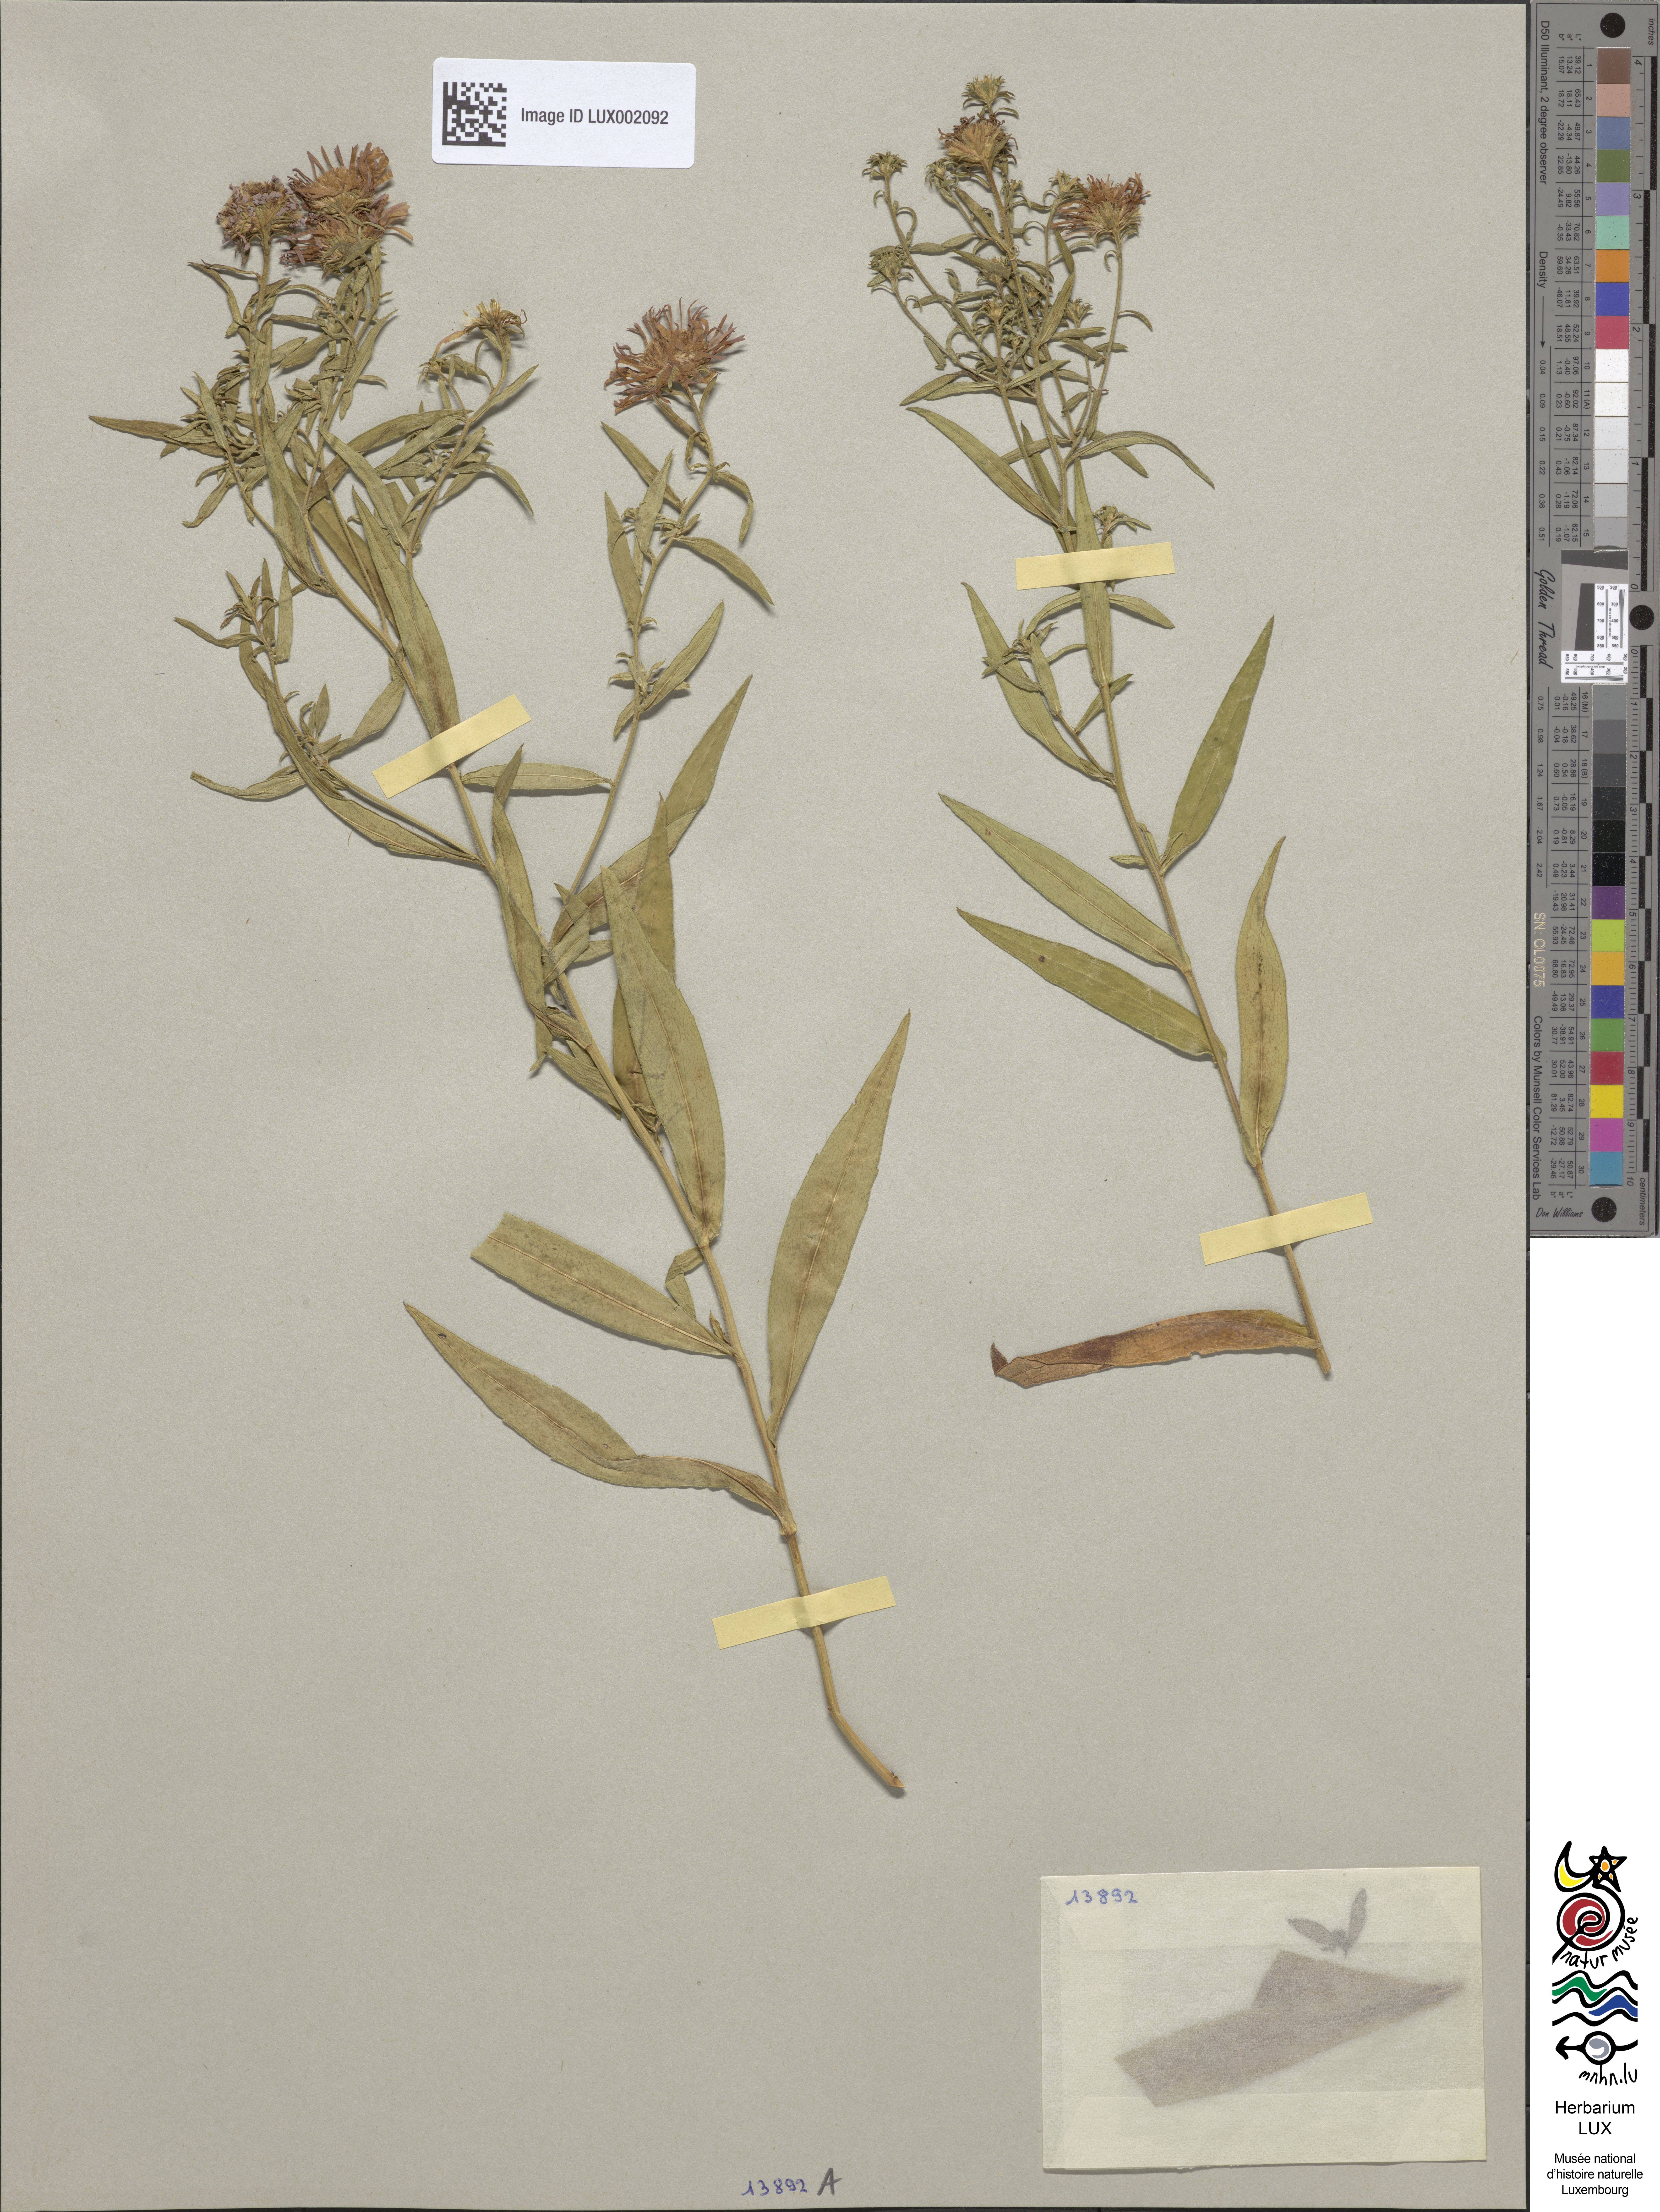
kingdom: Plantae
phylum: Tracheophyta
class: Magnoliopsida
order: Asterales
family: Asteraceae
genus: Symphyotrichum
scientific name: Symphyotrichum lanceolatum
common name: Panicled aster
